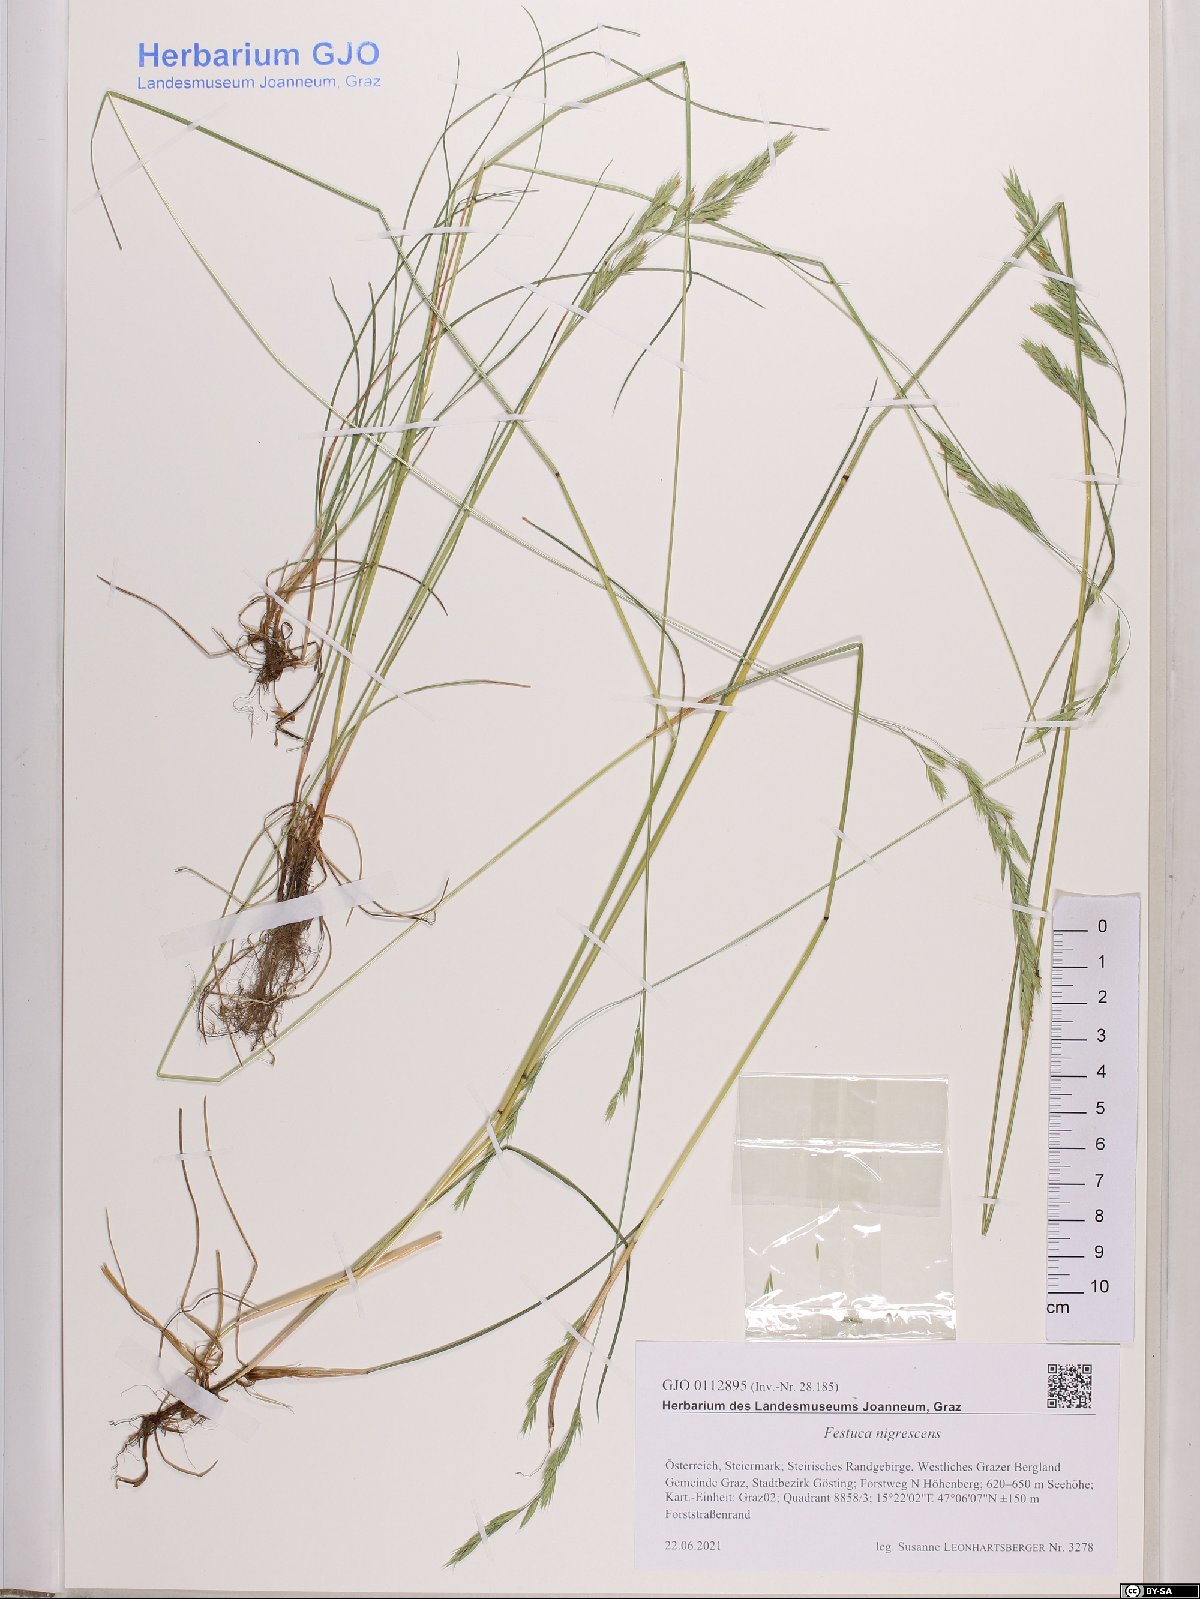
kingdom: Plantae
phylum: Tracheophyta
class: Liliopsida
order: Poales
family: Poaceae
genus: Festuca
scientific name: Festuca nigrescens
